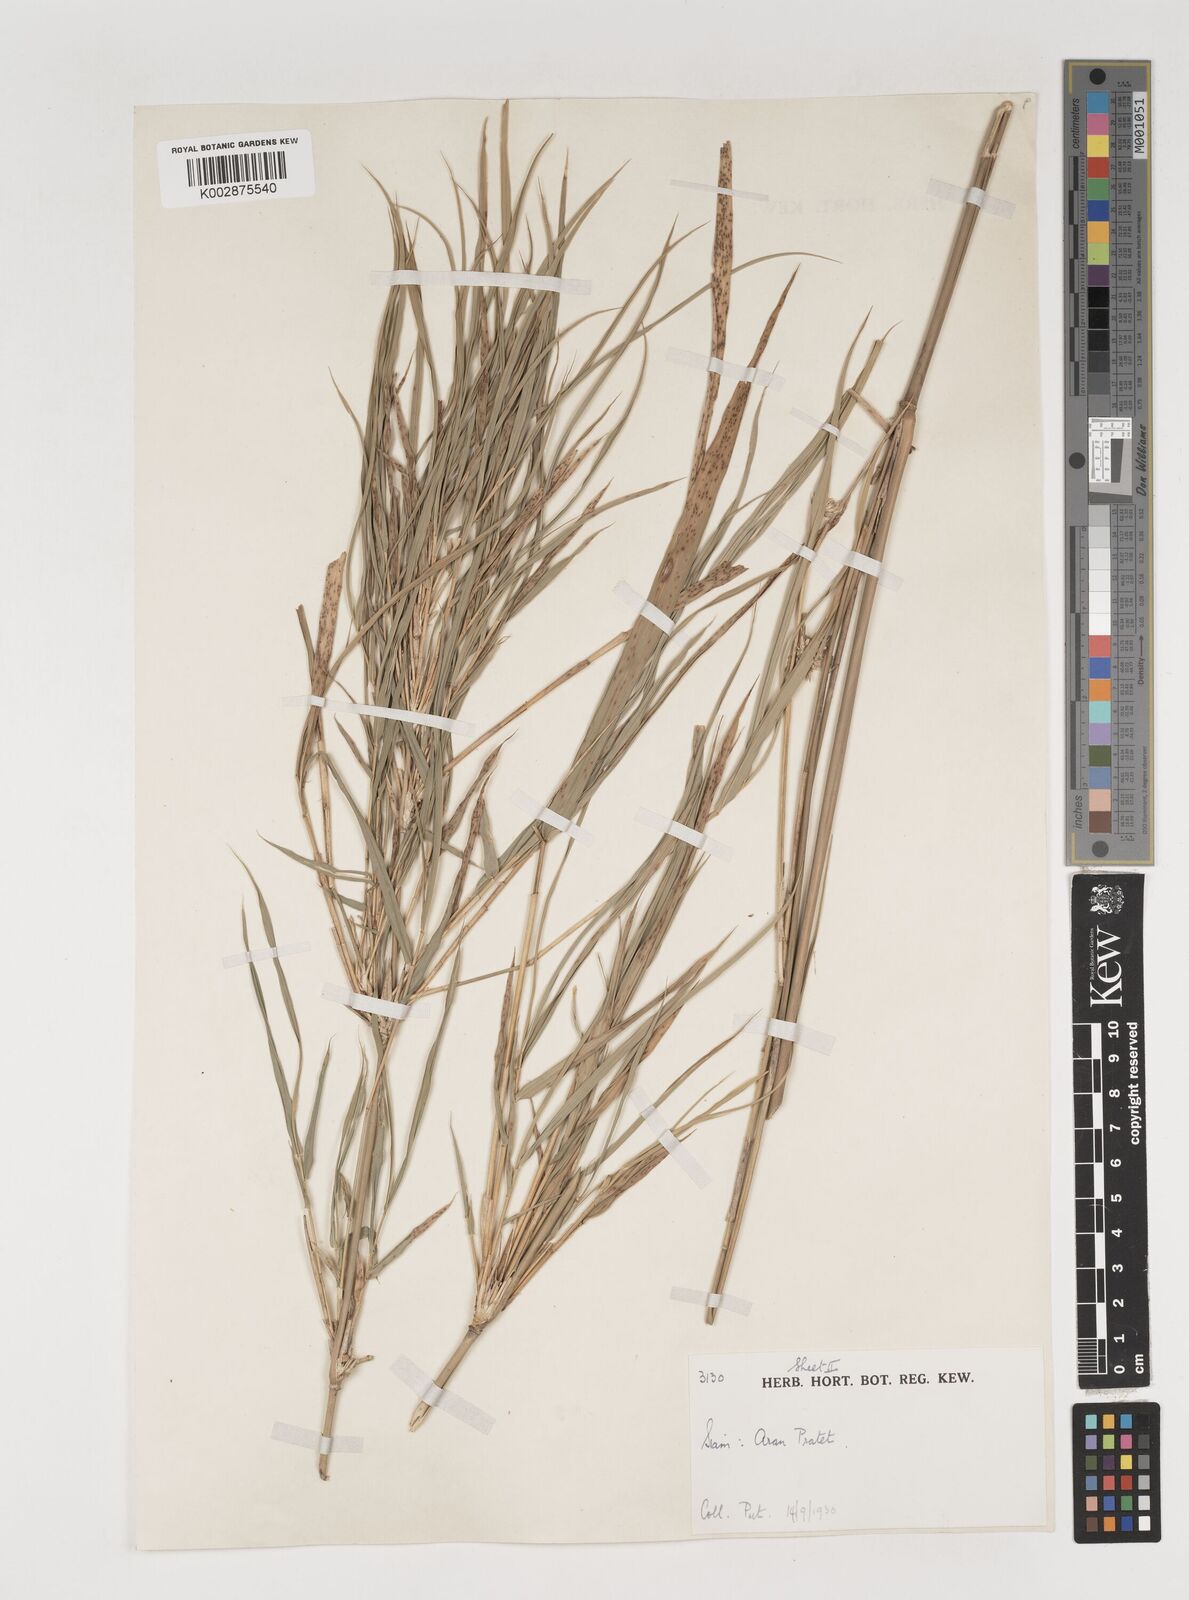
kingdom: Plantae
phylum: Tracheophyta
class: Liliopsida
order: Poales
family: Poaceae
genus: Vietnamosasa
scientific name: Vietnamosasa
